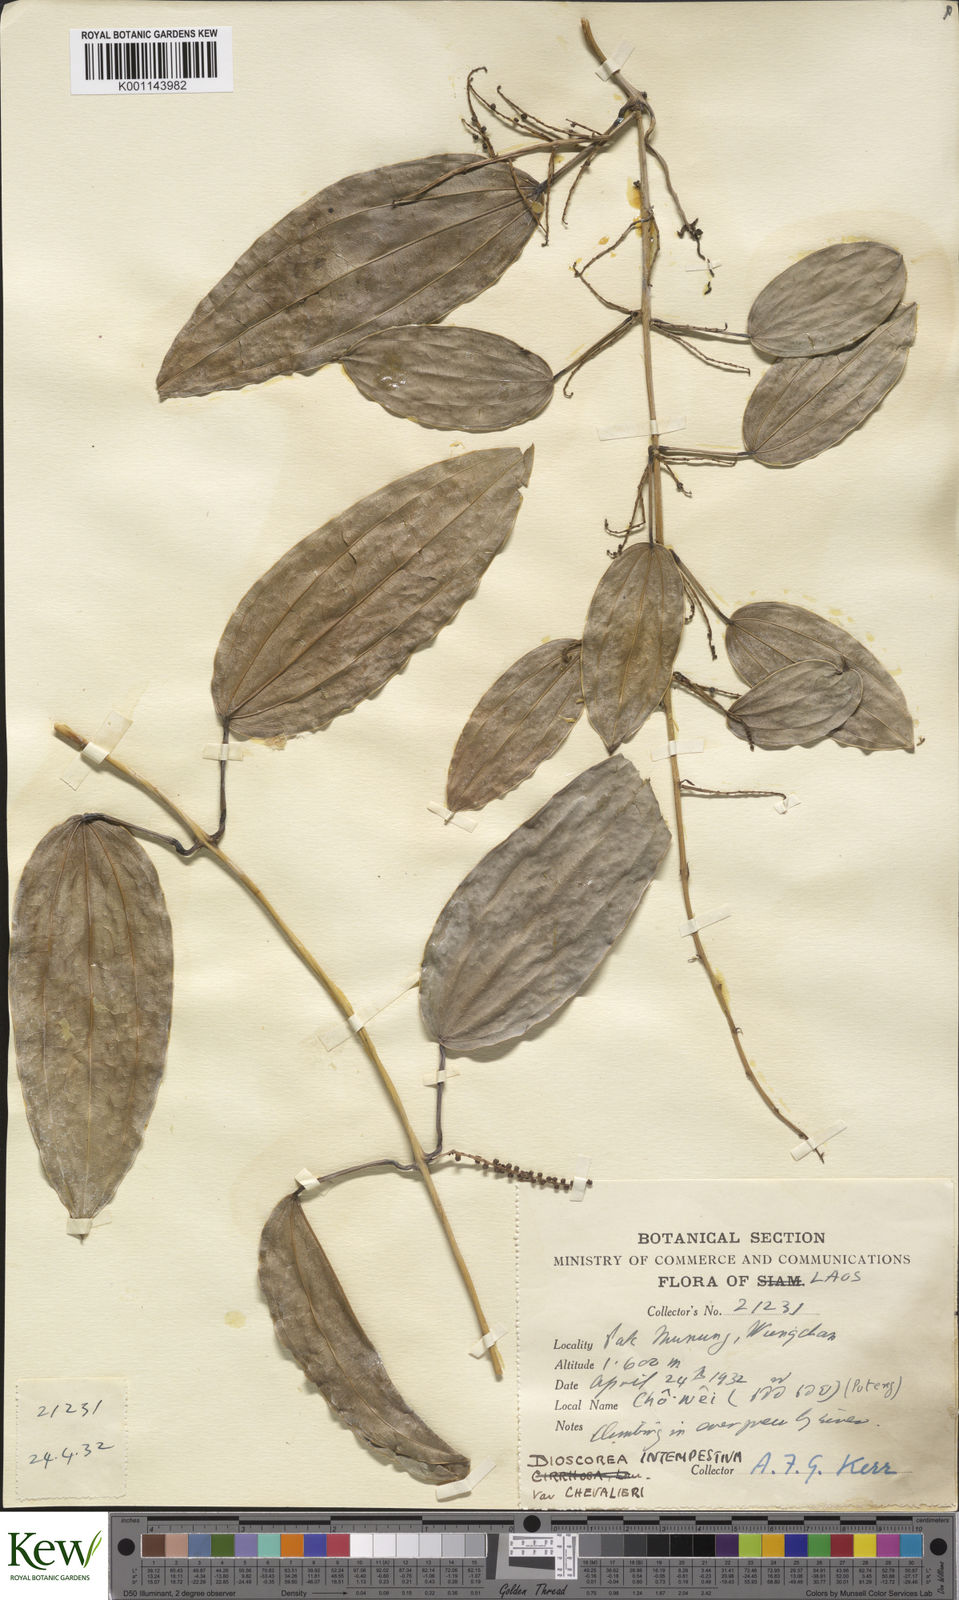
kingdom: Plantae
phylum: Tracheophyta
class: Liliopsida
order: Dioscoreales
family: Dioscoreaceae
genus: Dioscorea
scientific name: Dioscorea cirrhosa
